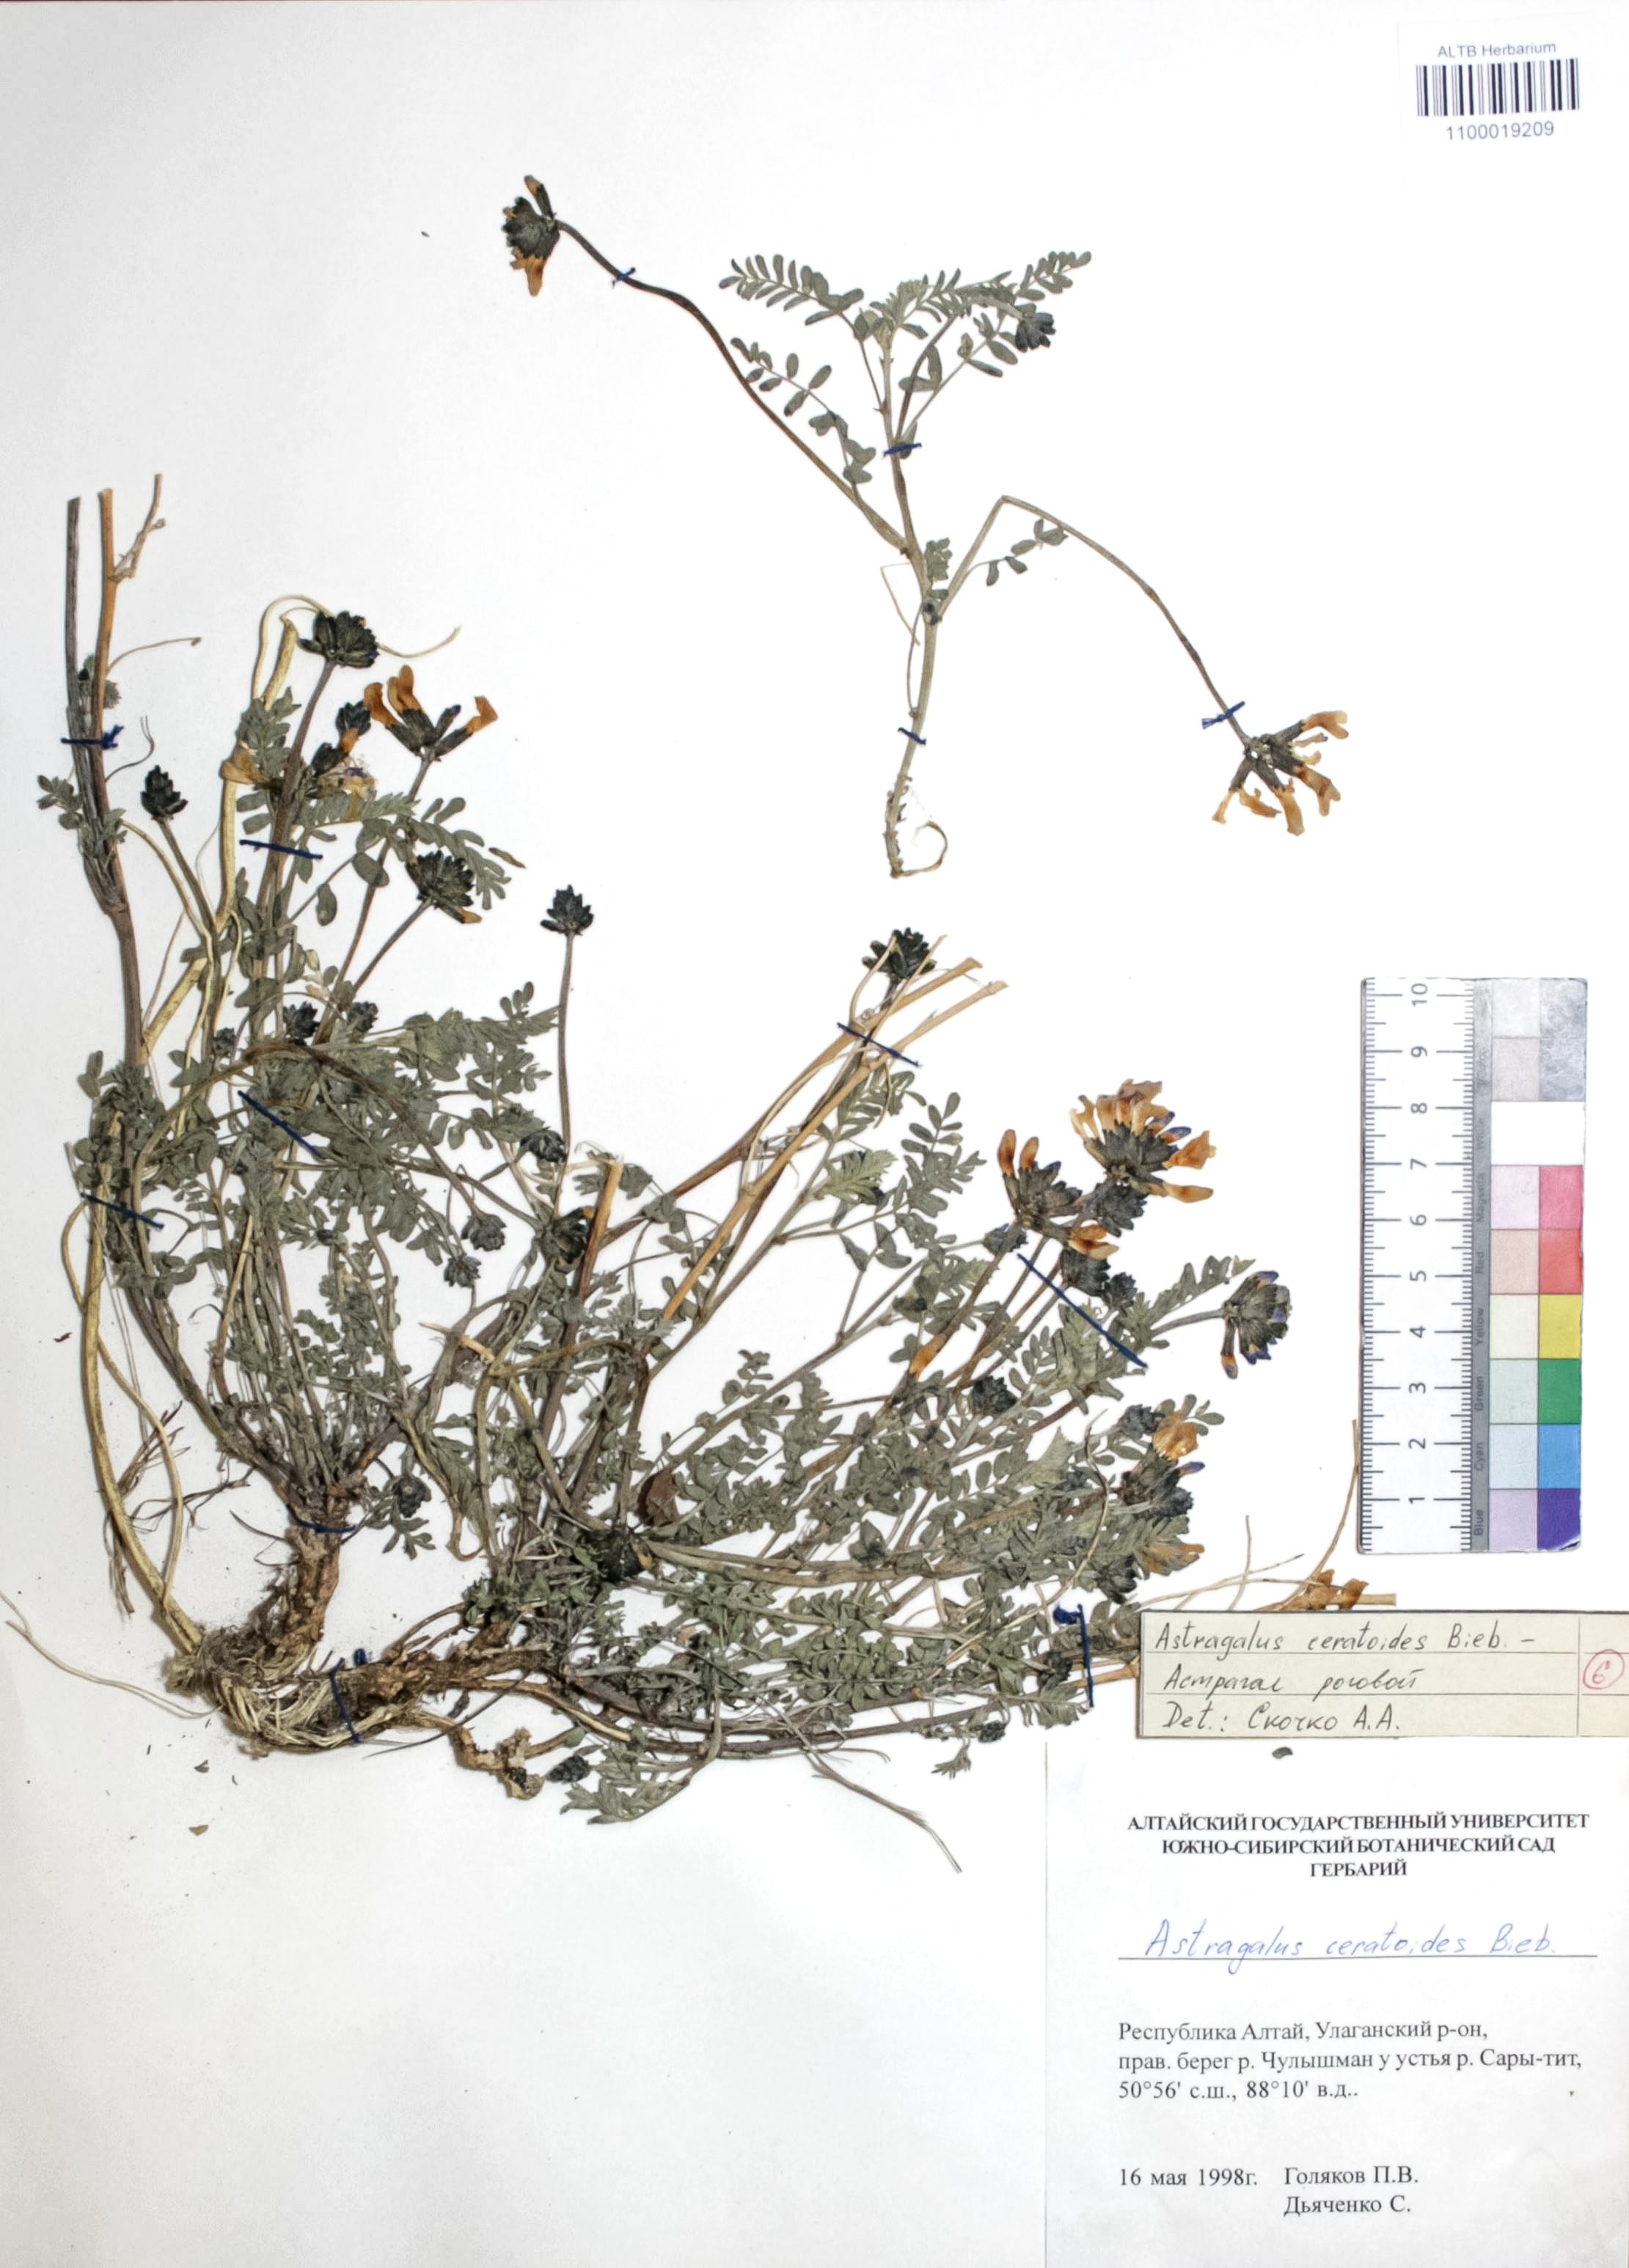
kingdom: Plantae
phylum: Tracheophyta
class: Magnoliopsida
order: Fabales
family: Fabaceae
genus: Astragalus
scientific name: Astragalus ceratoides
